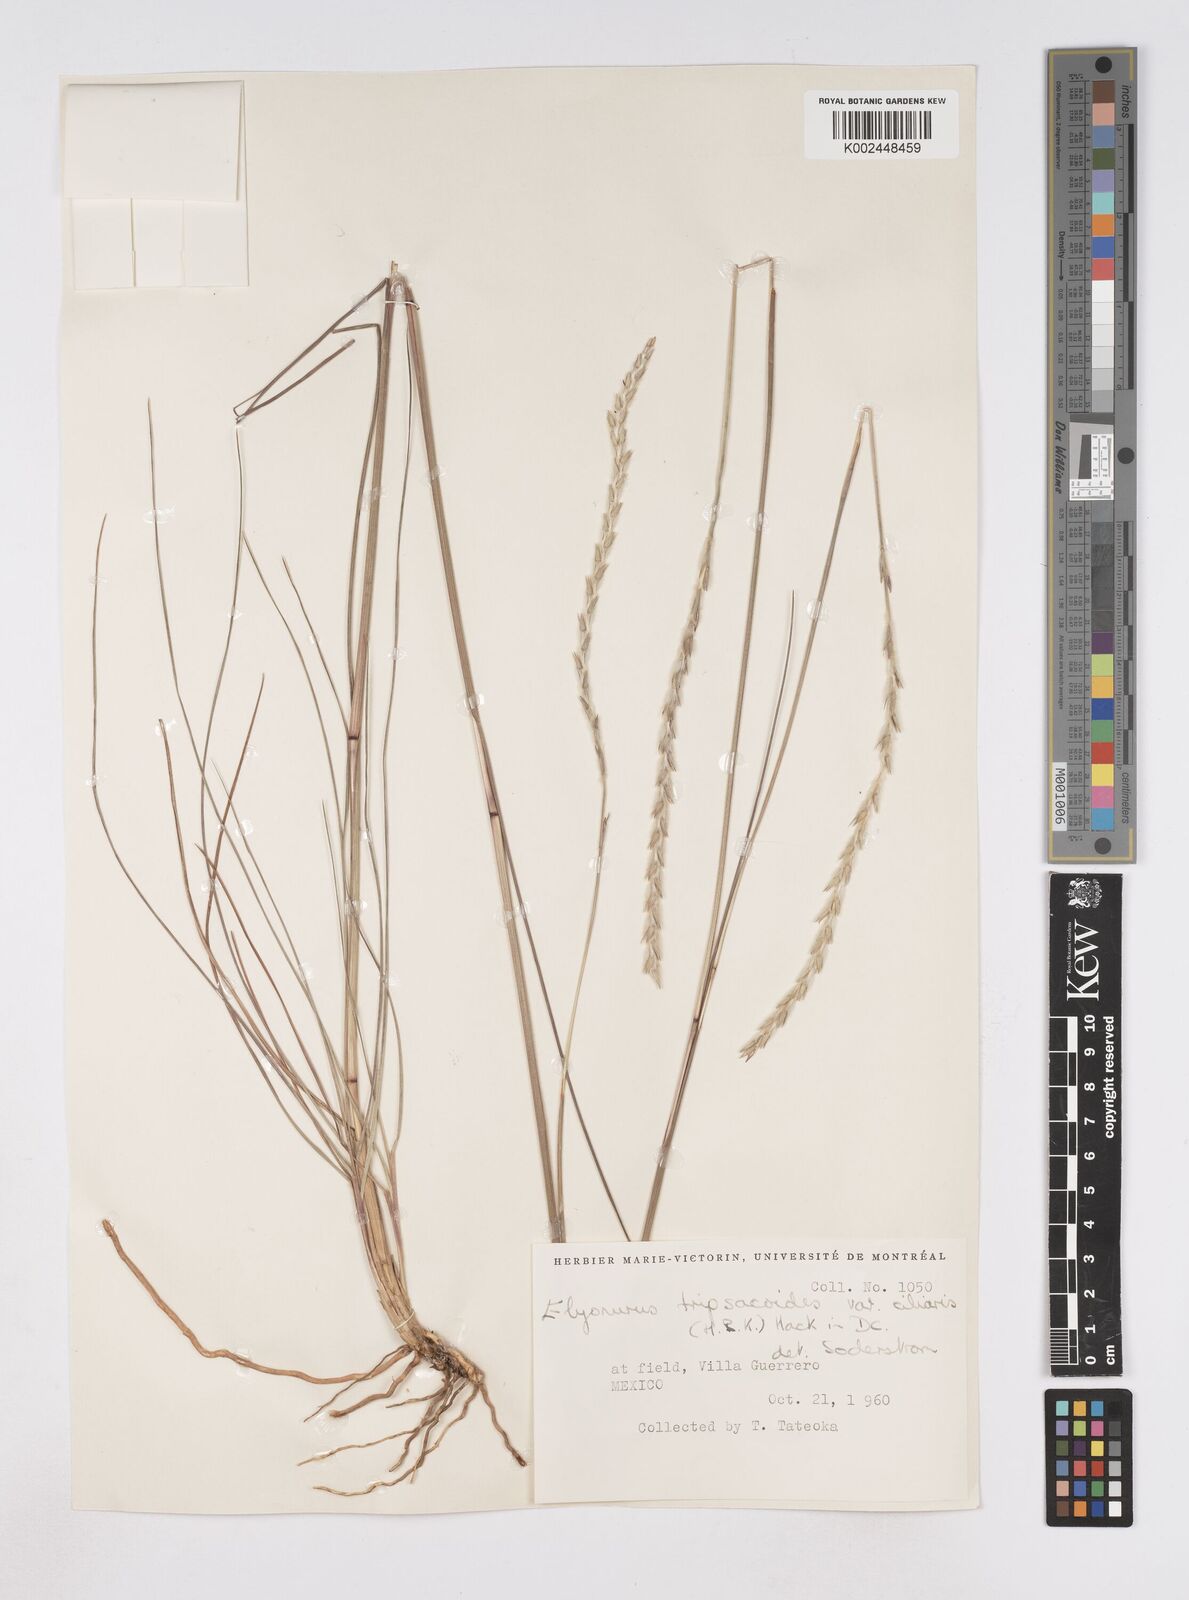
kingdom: Plantae
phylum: Tracheophyta
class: Liliopsida
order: Poales
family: Poaceae
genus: Elionurus
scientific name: Elionurus ciliaris
